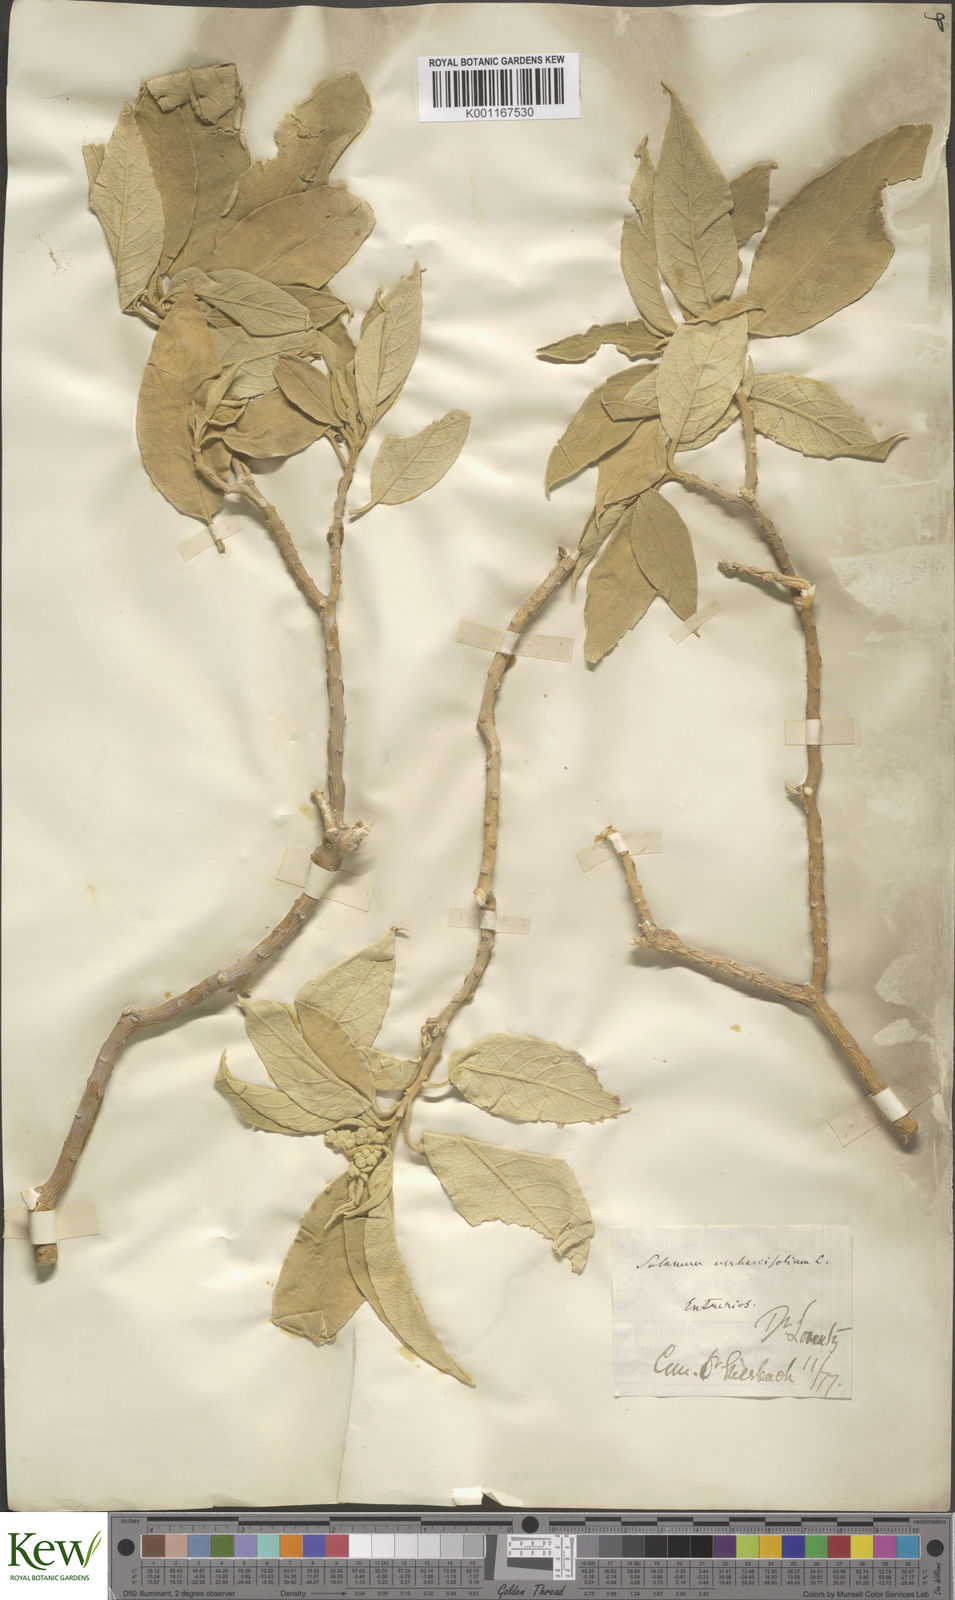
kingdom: Plantae
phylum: Tracheophyta
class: Magnoliopsida
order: Solanales
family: Solanaceae
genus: Solanum
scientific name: Solanum erianthum
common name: Tobacco-tree
